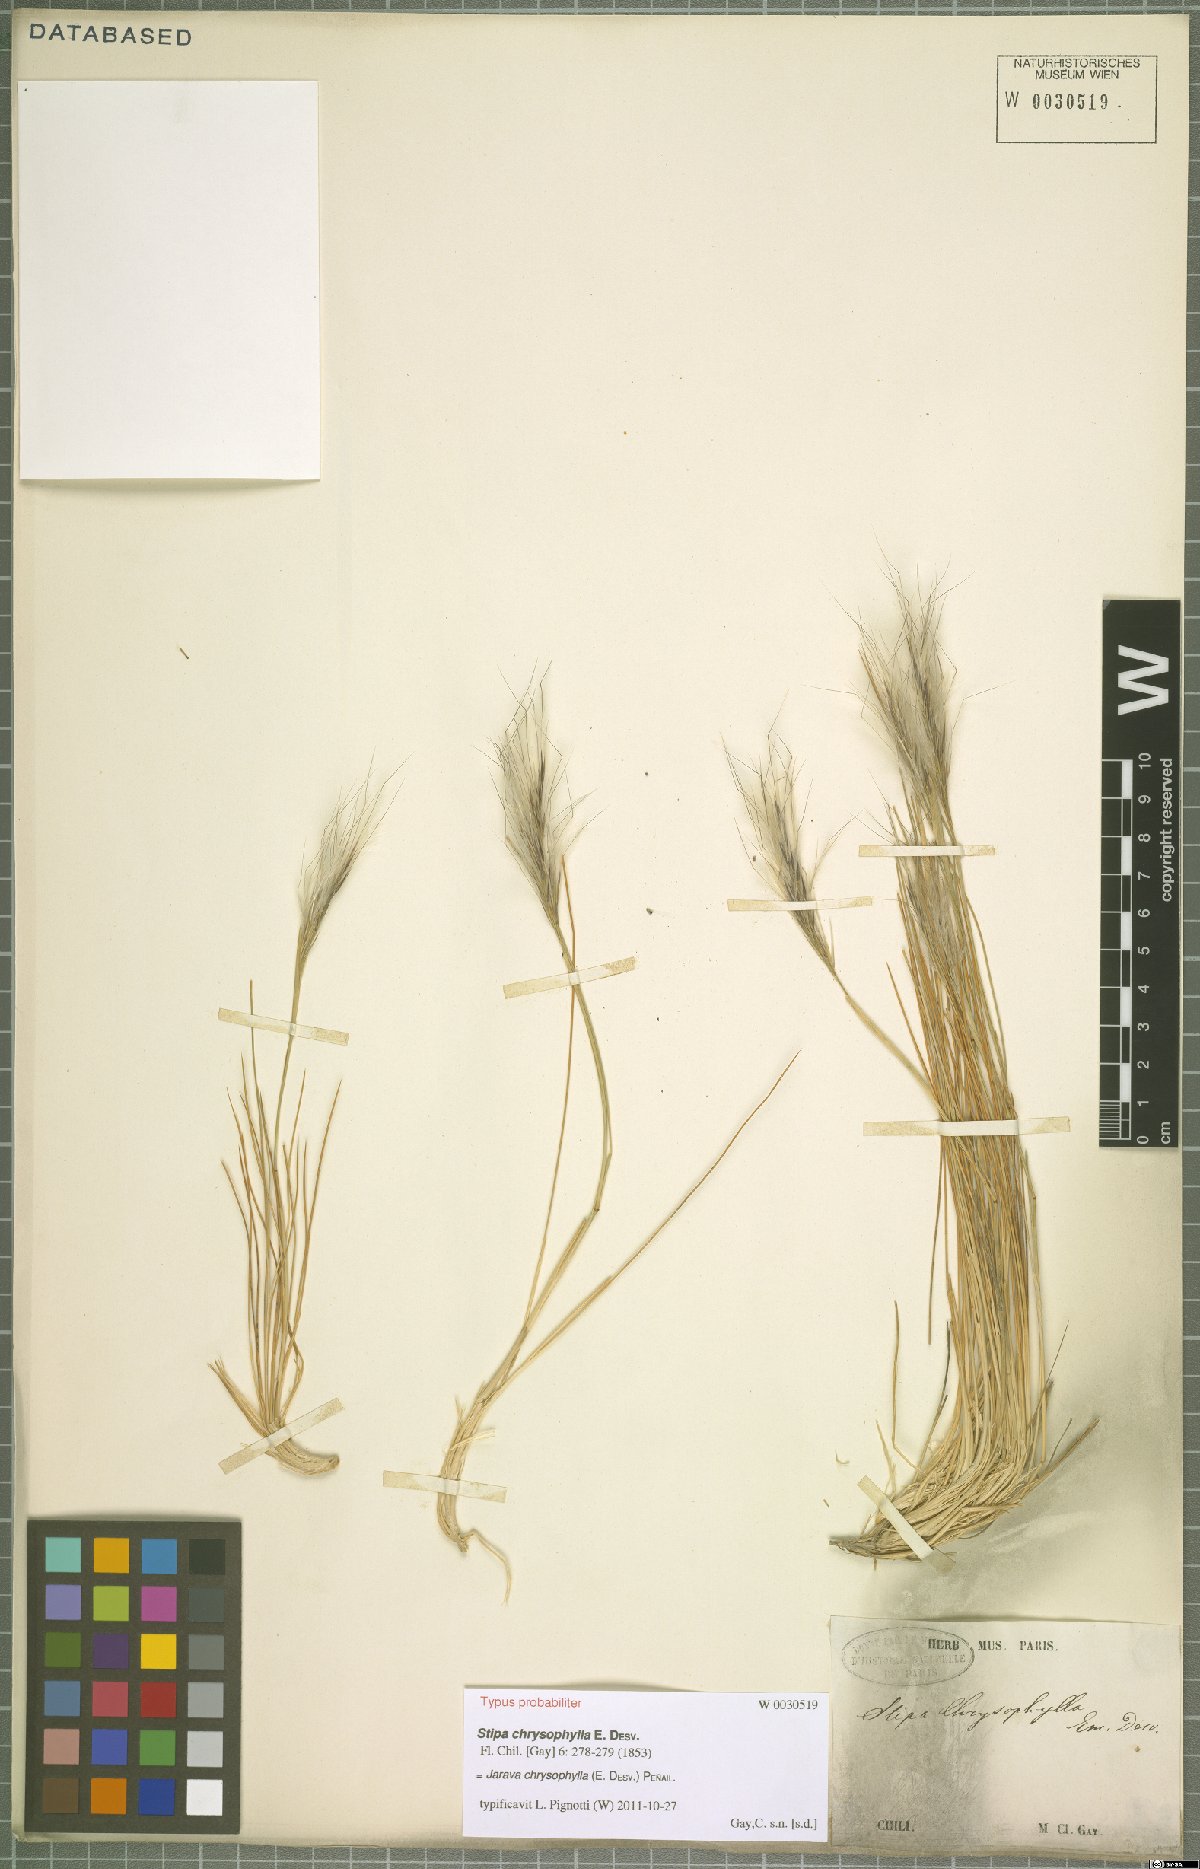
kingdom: Plantae
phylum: Tracheophyta
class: Liliopsida
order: Poales
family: Poaceae
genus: Pappostipa
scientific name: Pappostipa chrysophylla
